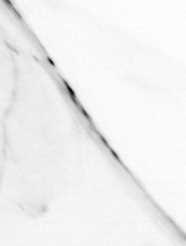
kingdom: Animalia
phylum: Chaetognatha
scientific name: Chaetognatha
